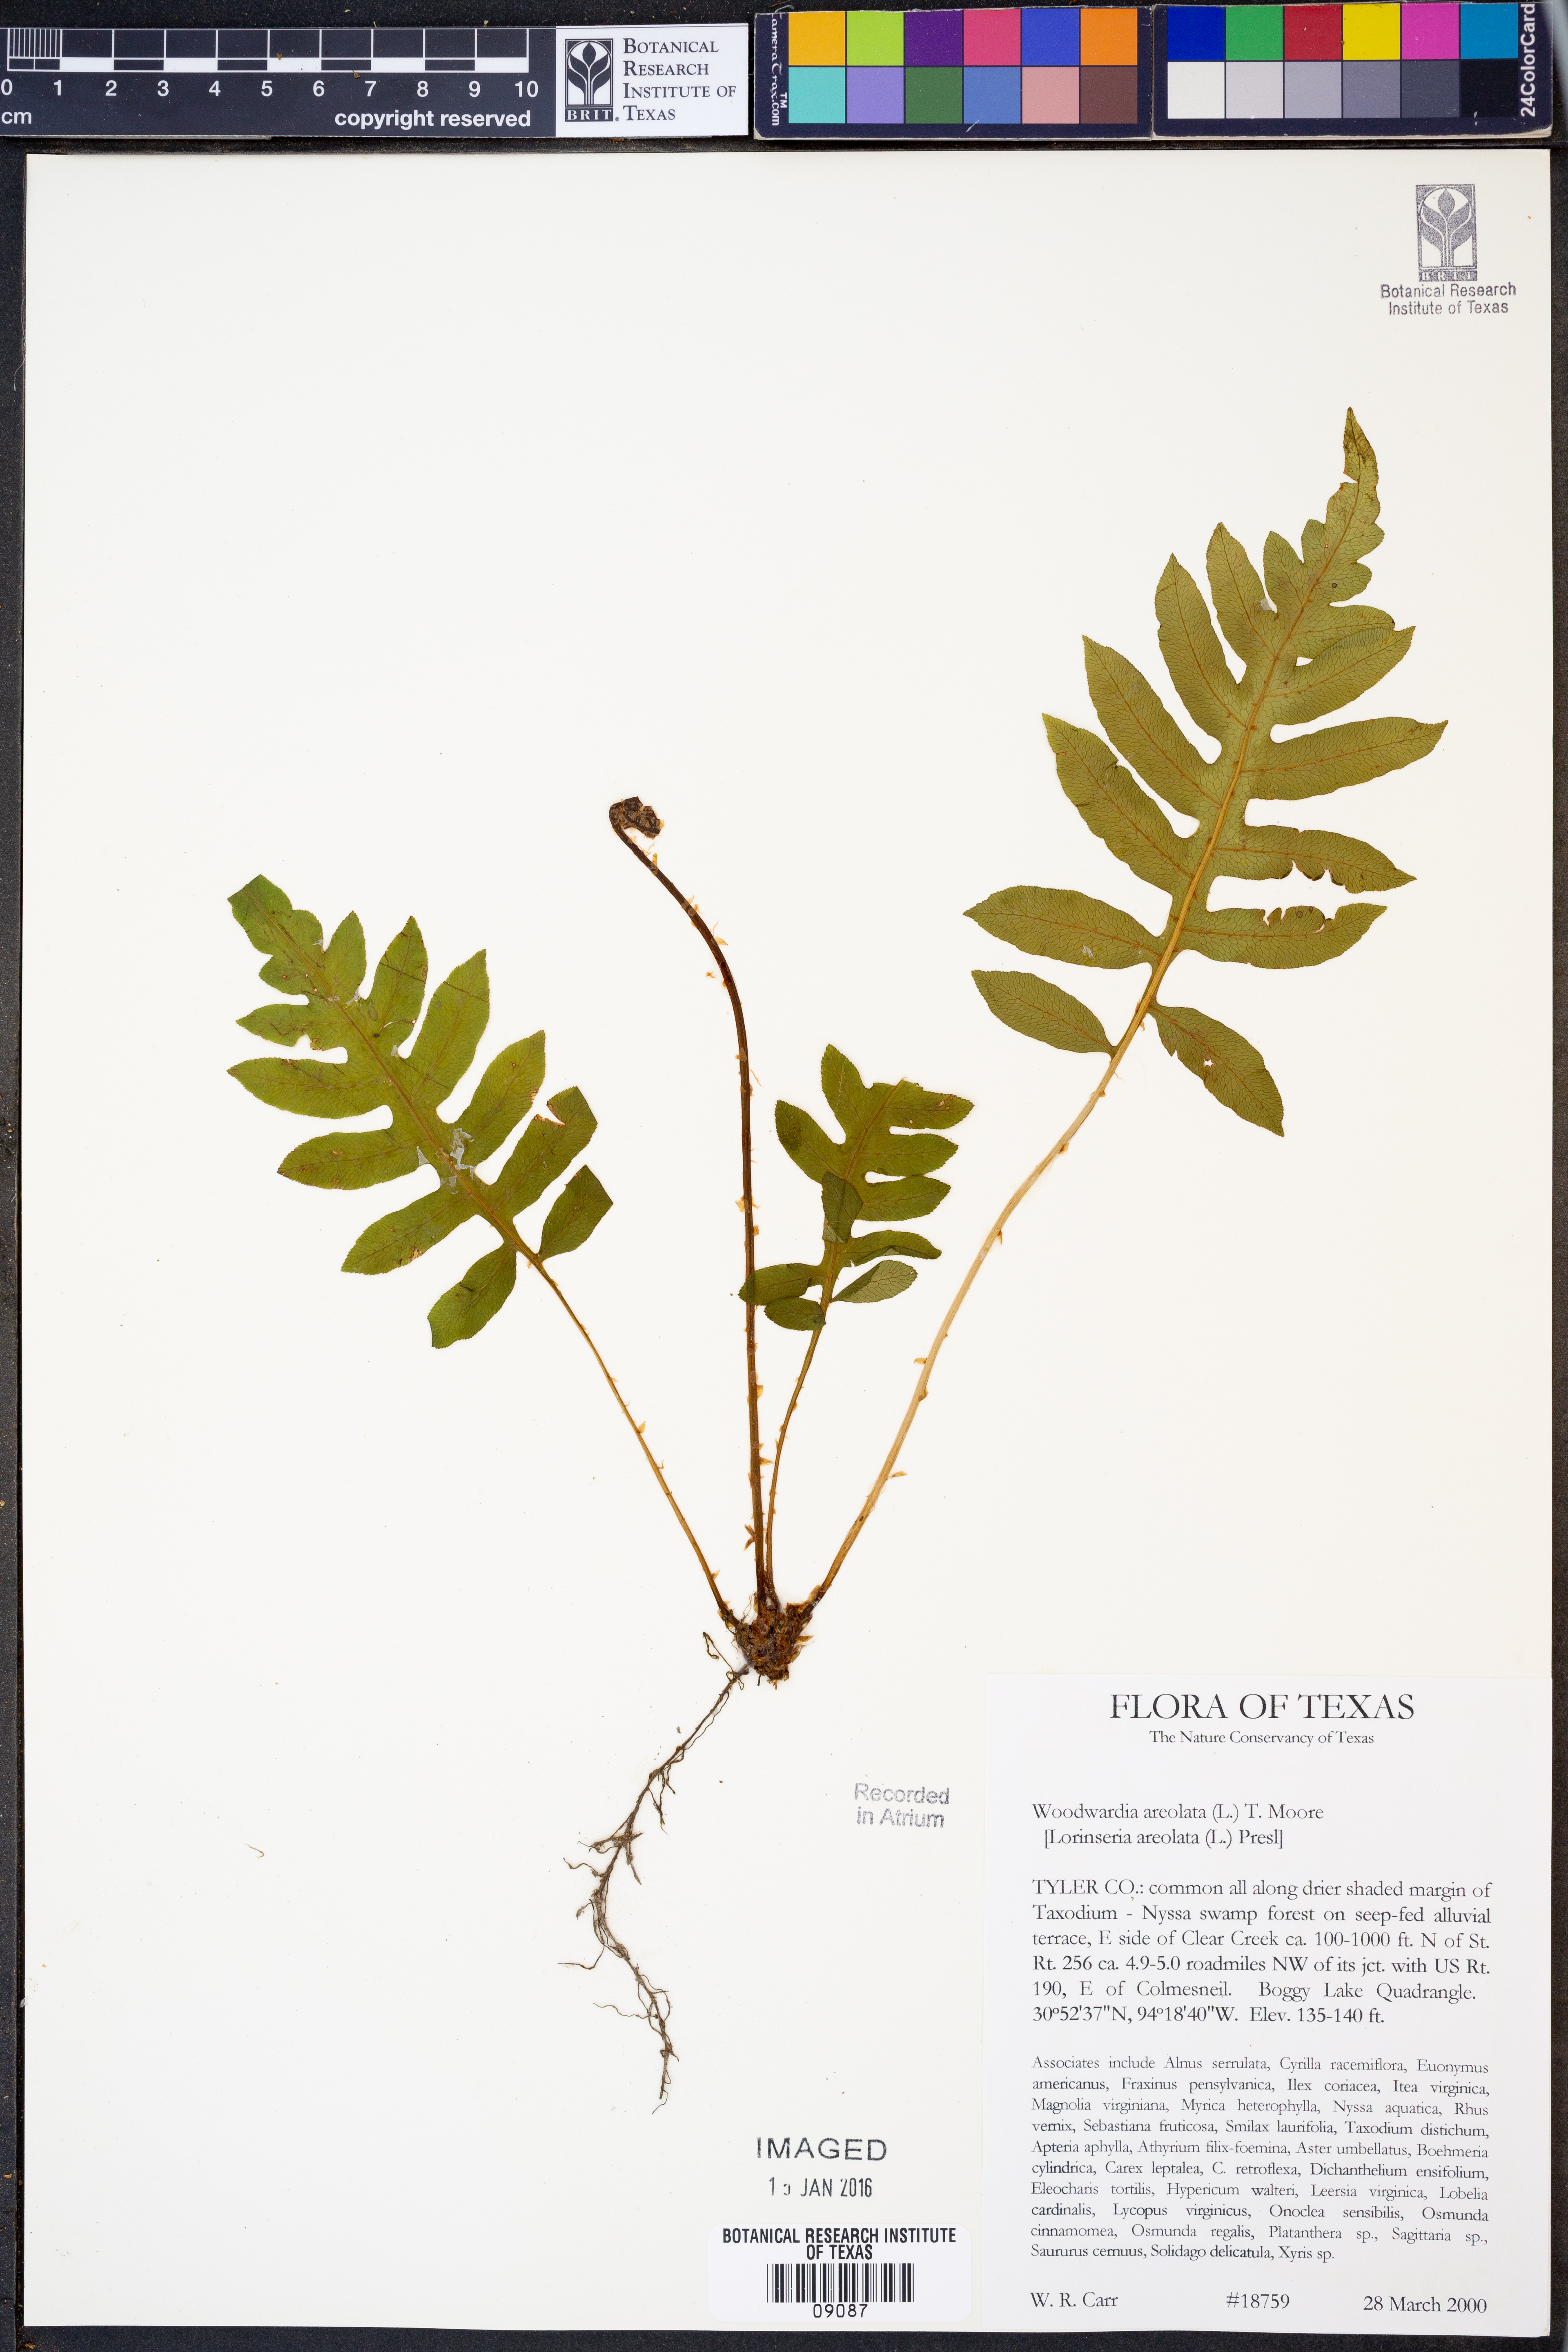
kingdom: Plantae
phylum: Tracheophyta
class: Polypodiopsida
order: Polypodiales
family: Blechnaceae
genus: Lorinseria
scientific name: Lorinseria areolata
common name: Dwarf chain fern
